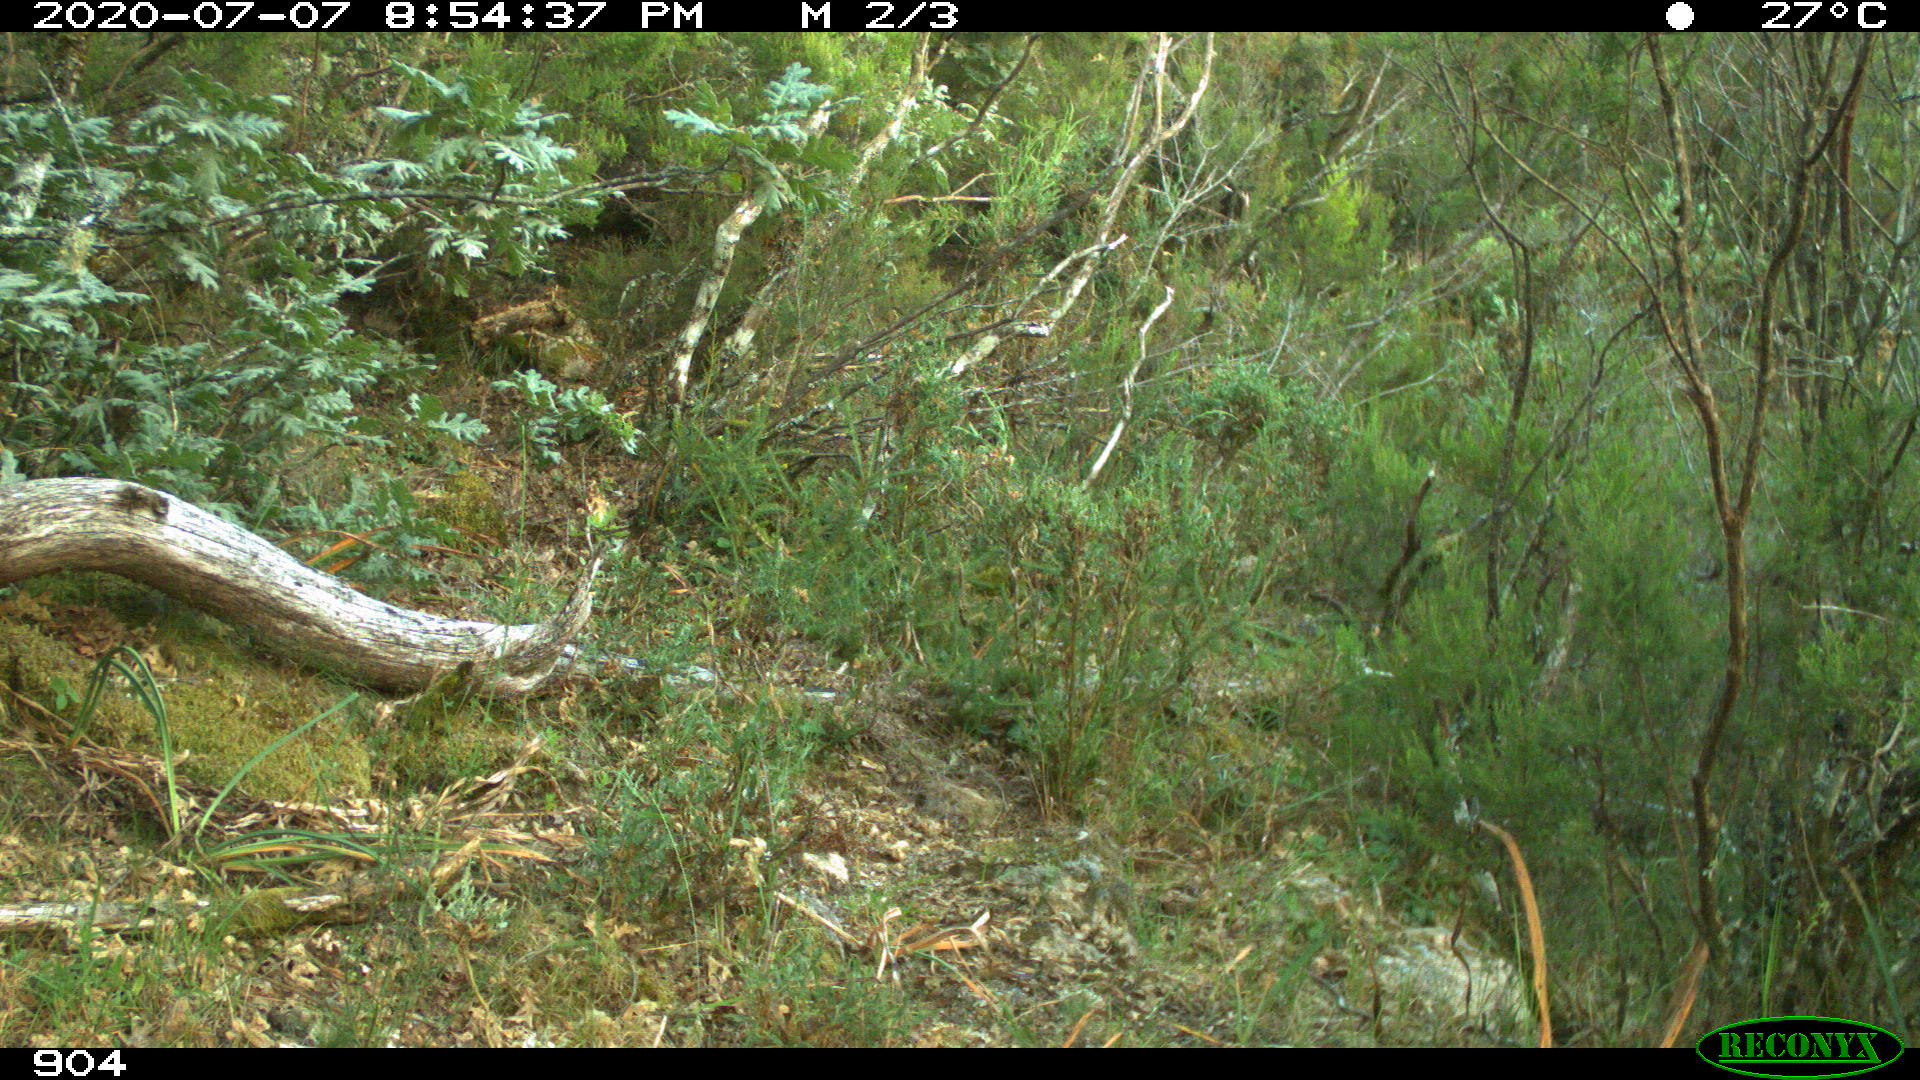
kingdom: Animalia
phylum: Chordata
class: Mammalia
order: Artiodactyla
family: Suidae
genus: Sus
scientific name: Sus scrofa
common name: Wild boar
